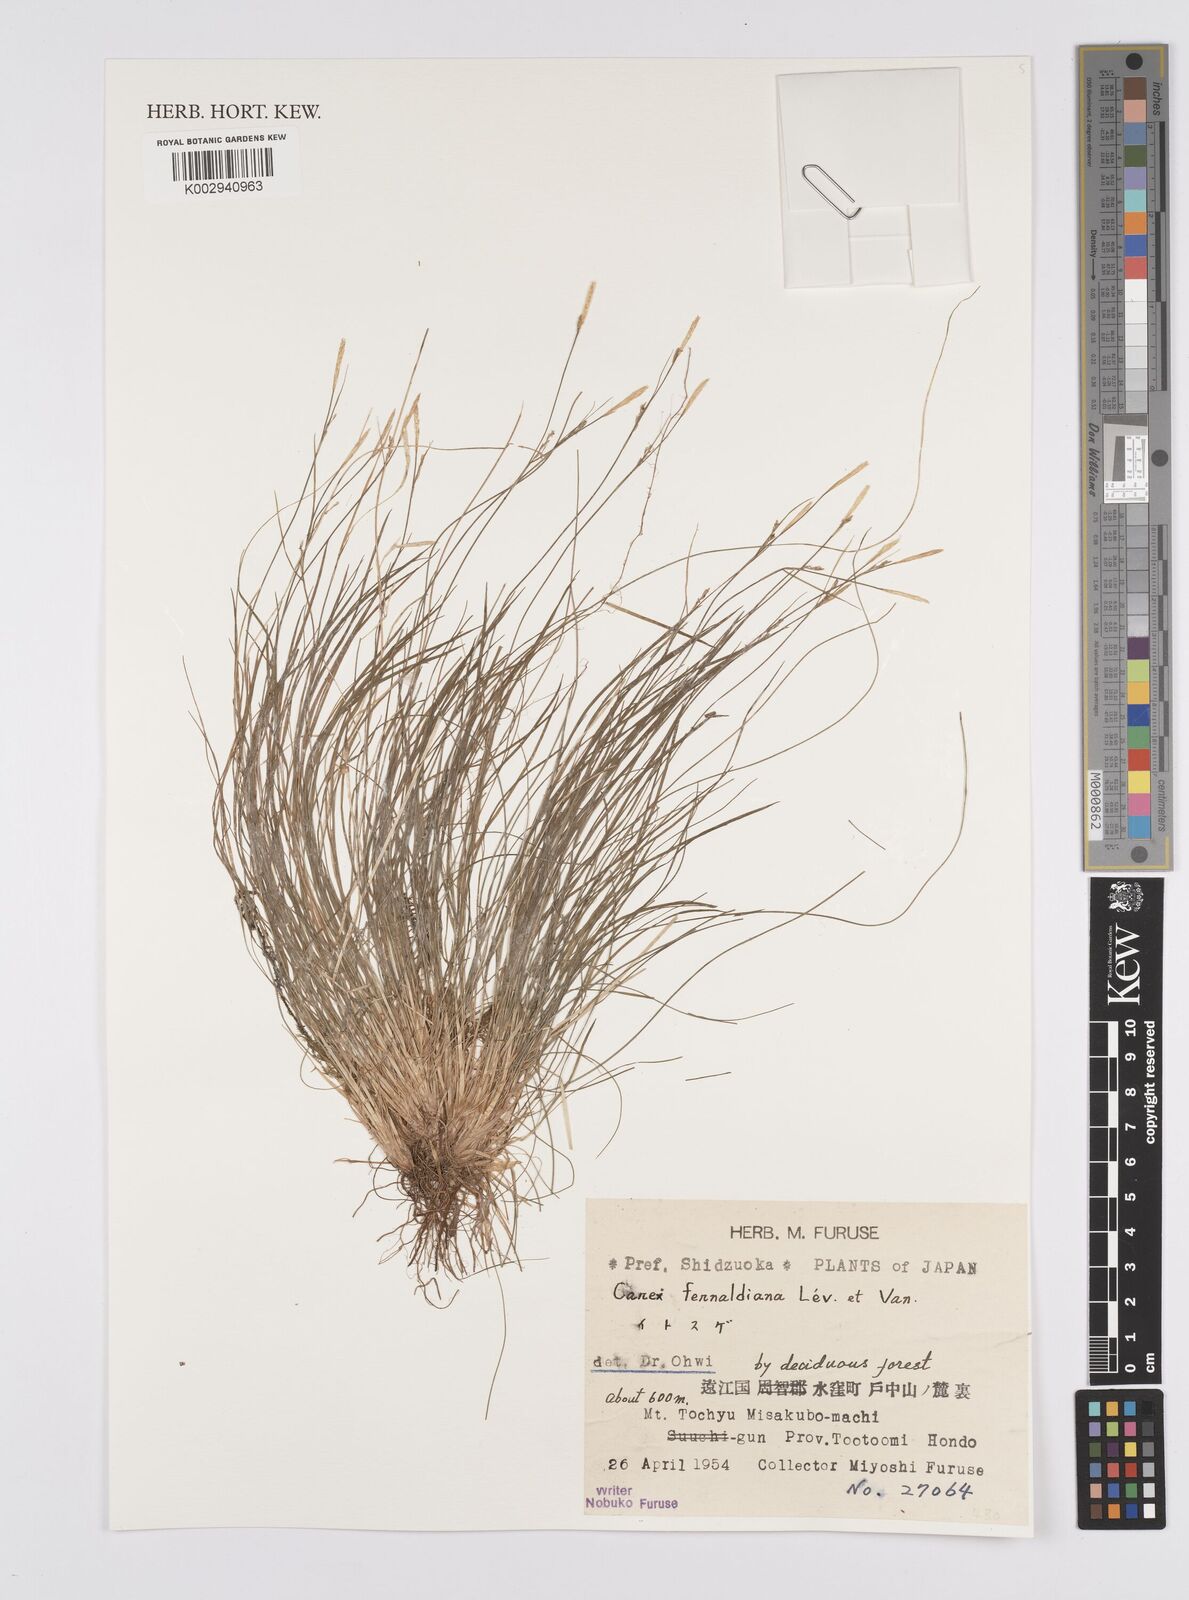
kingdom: Plantae
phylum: Tracheophyta
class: Liliopsida
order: Poales
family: Cyperaceae
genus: Carex
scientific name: Carex fibrillosa
